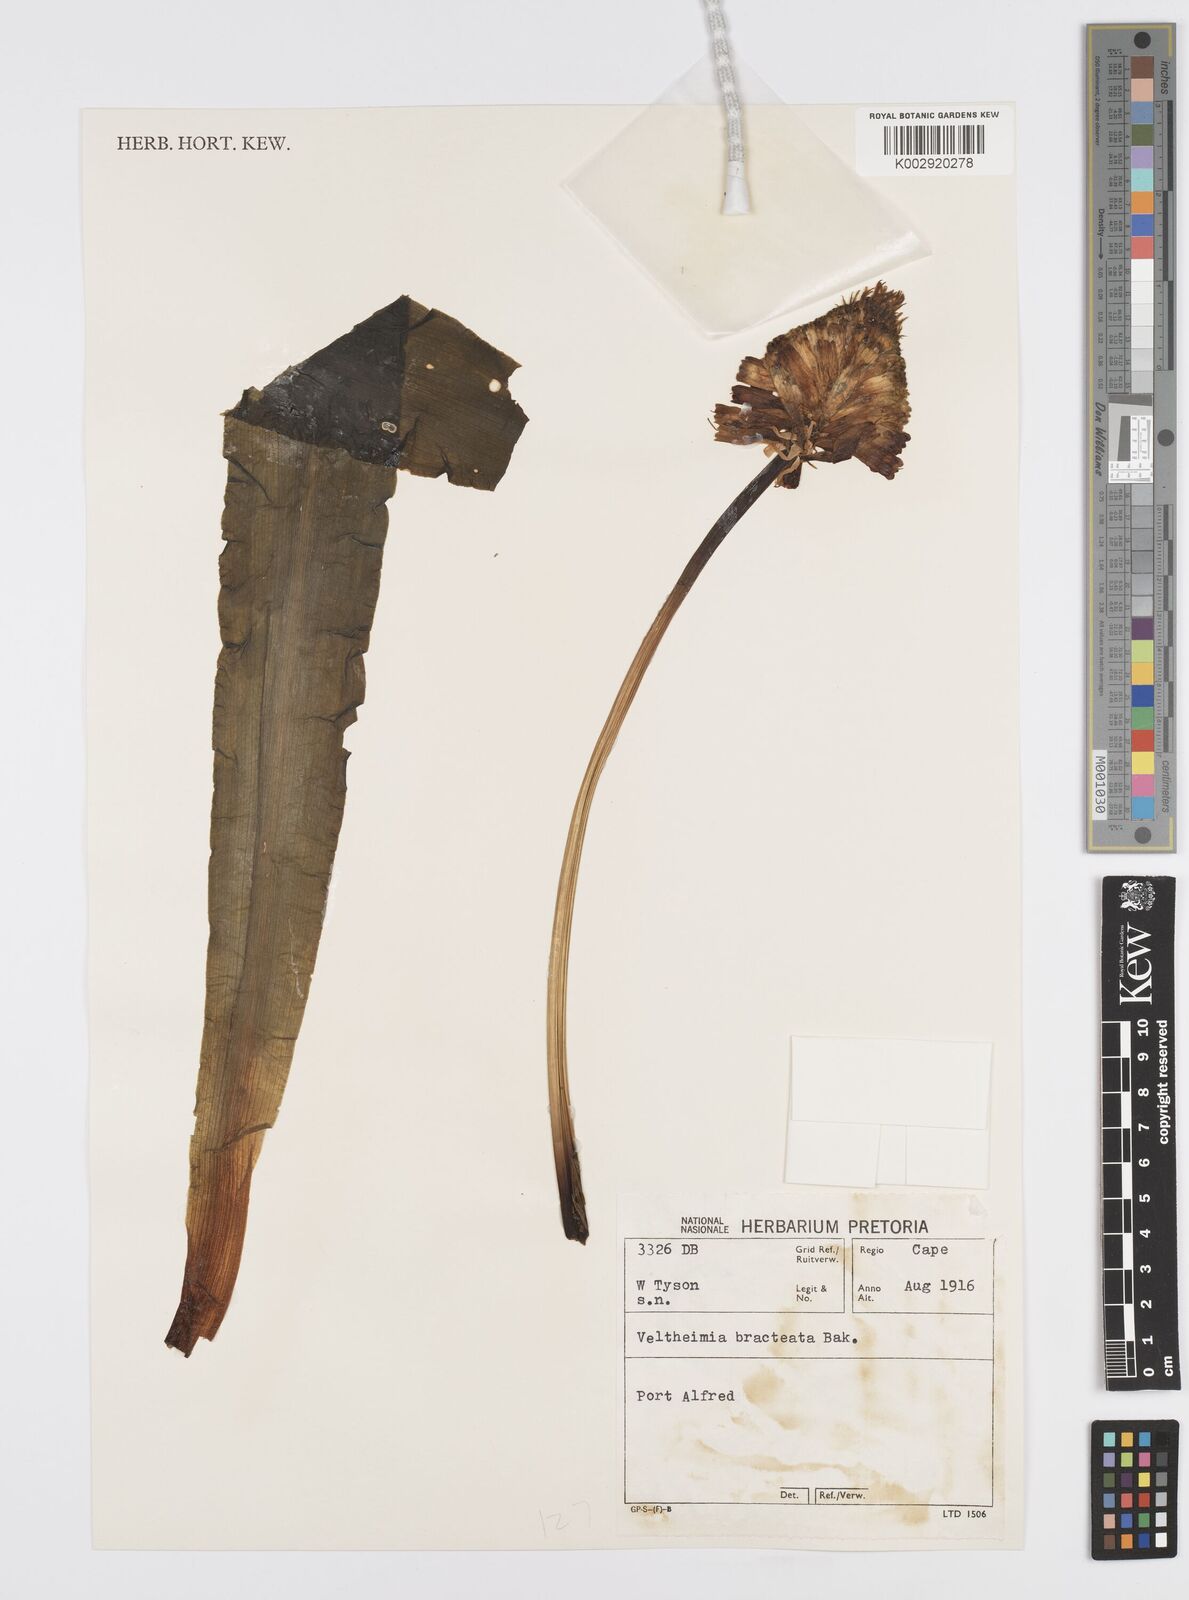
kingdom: Plantae
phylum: Tracheophyta
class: Liliopsida
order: Asparagales
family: Asparagaceae
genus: Veltheimia
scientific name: Veltheimia bracteata
